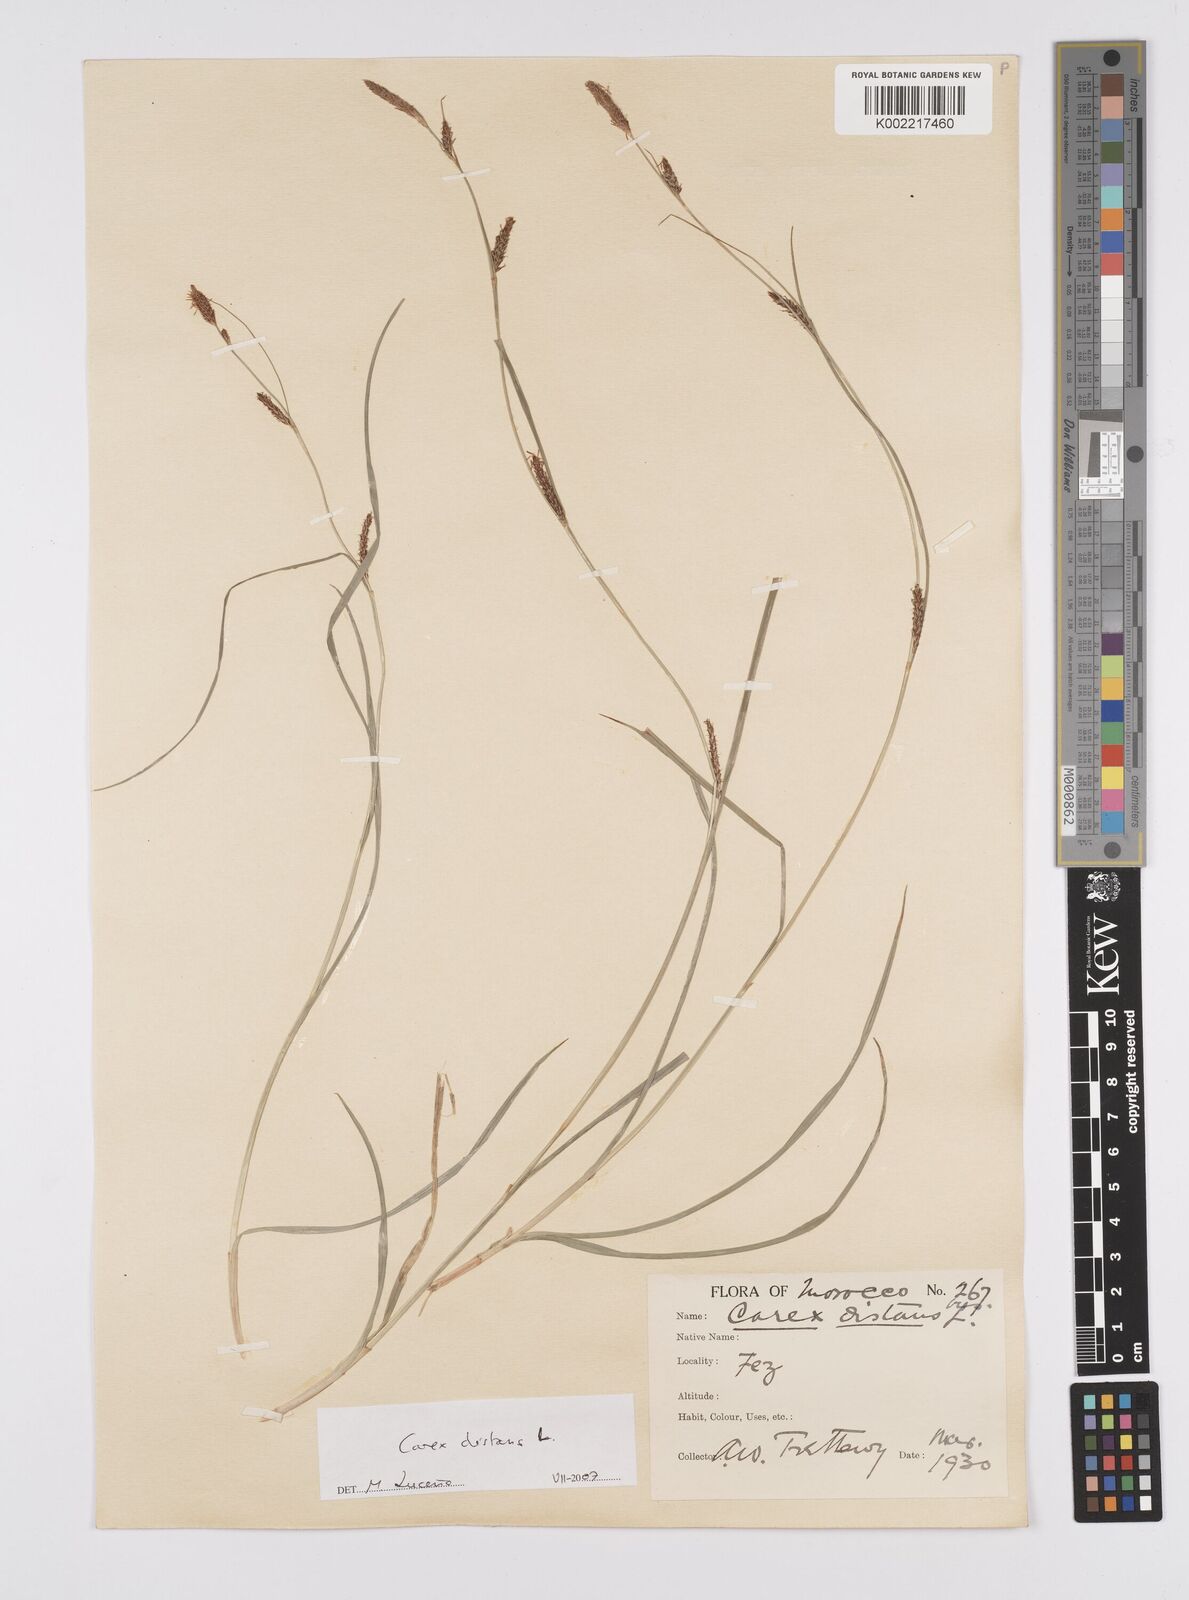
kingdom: Plantae
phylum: Tracheophyta
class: Liliopsida
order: Poales
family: Cyperaceae
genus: Carex
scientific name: Carex distans
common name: Distant sedge
